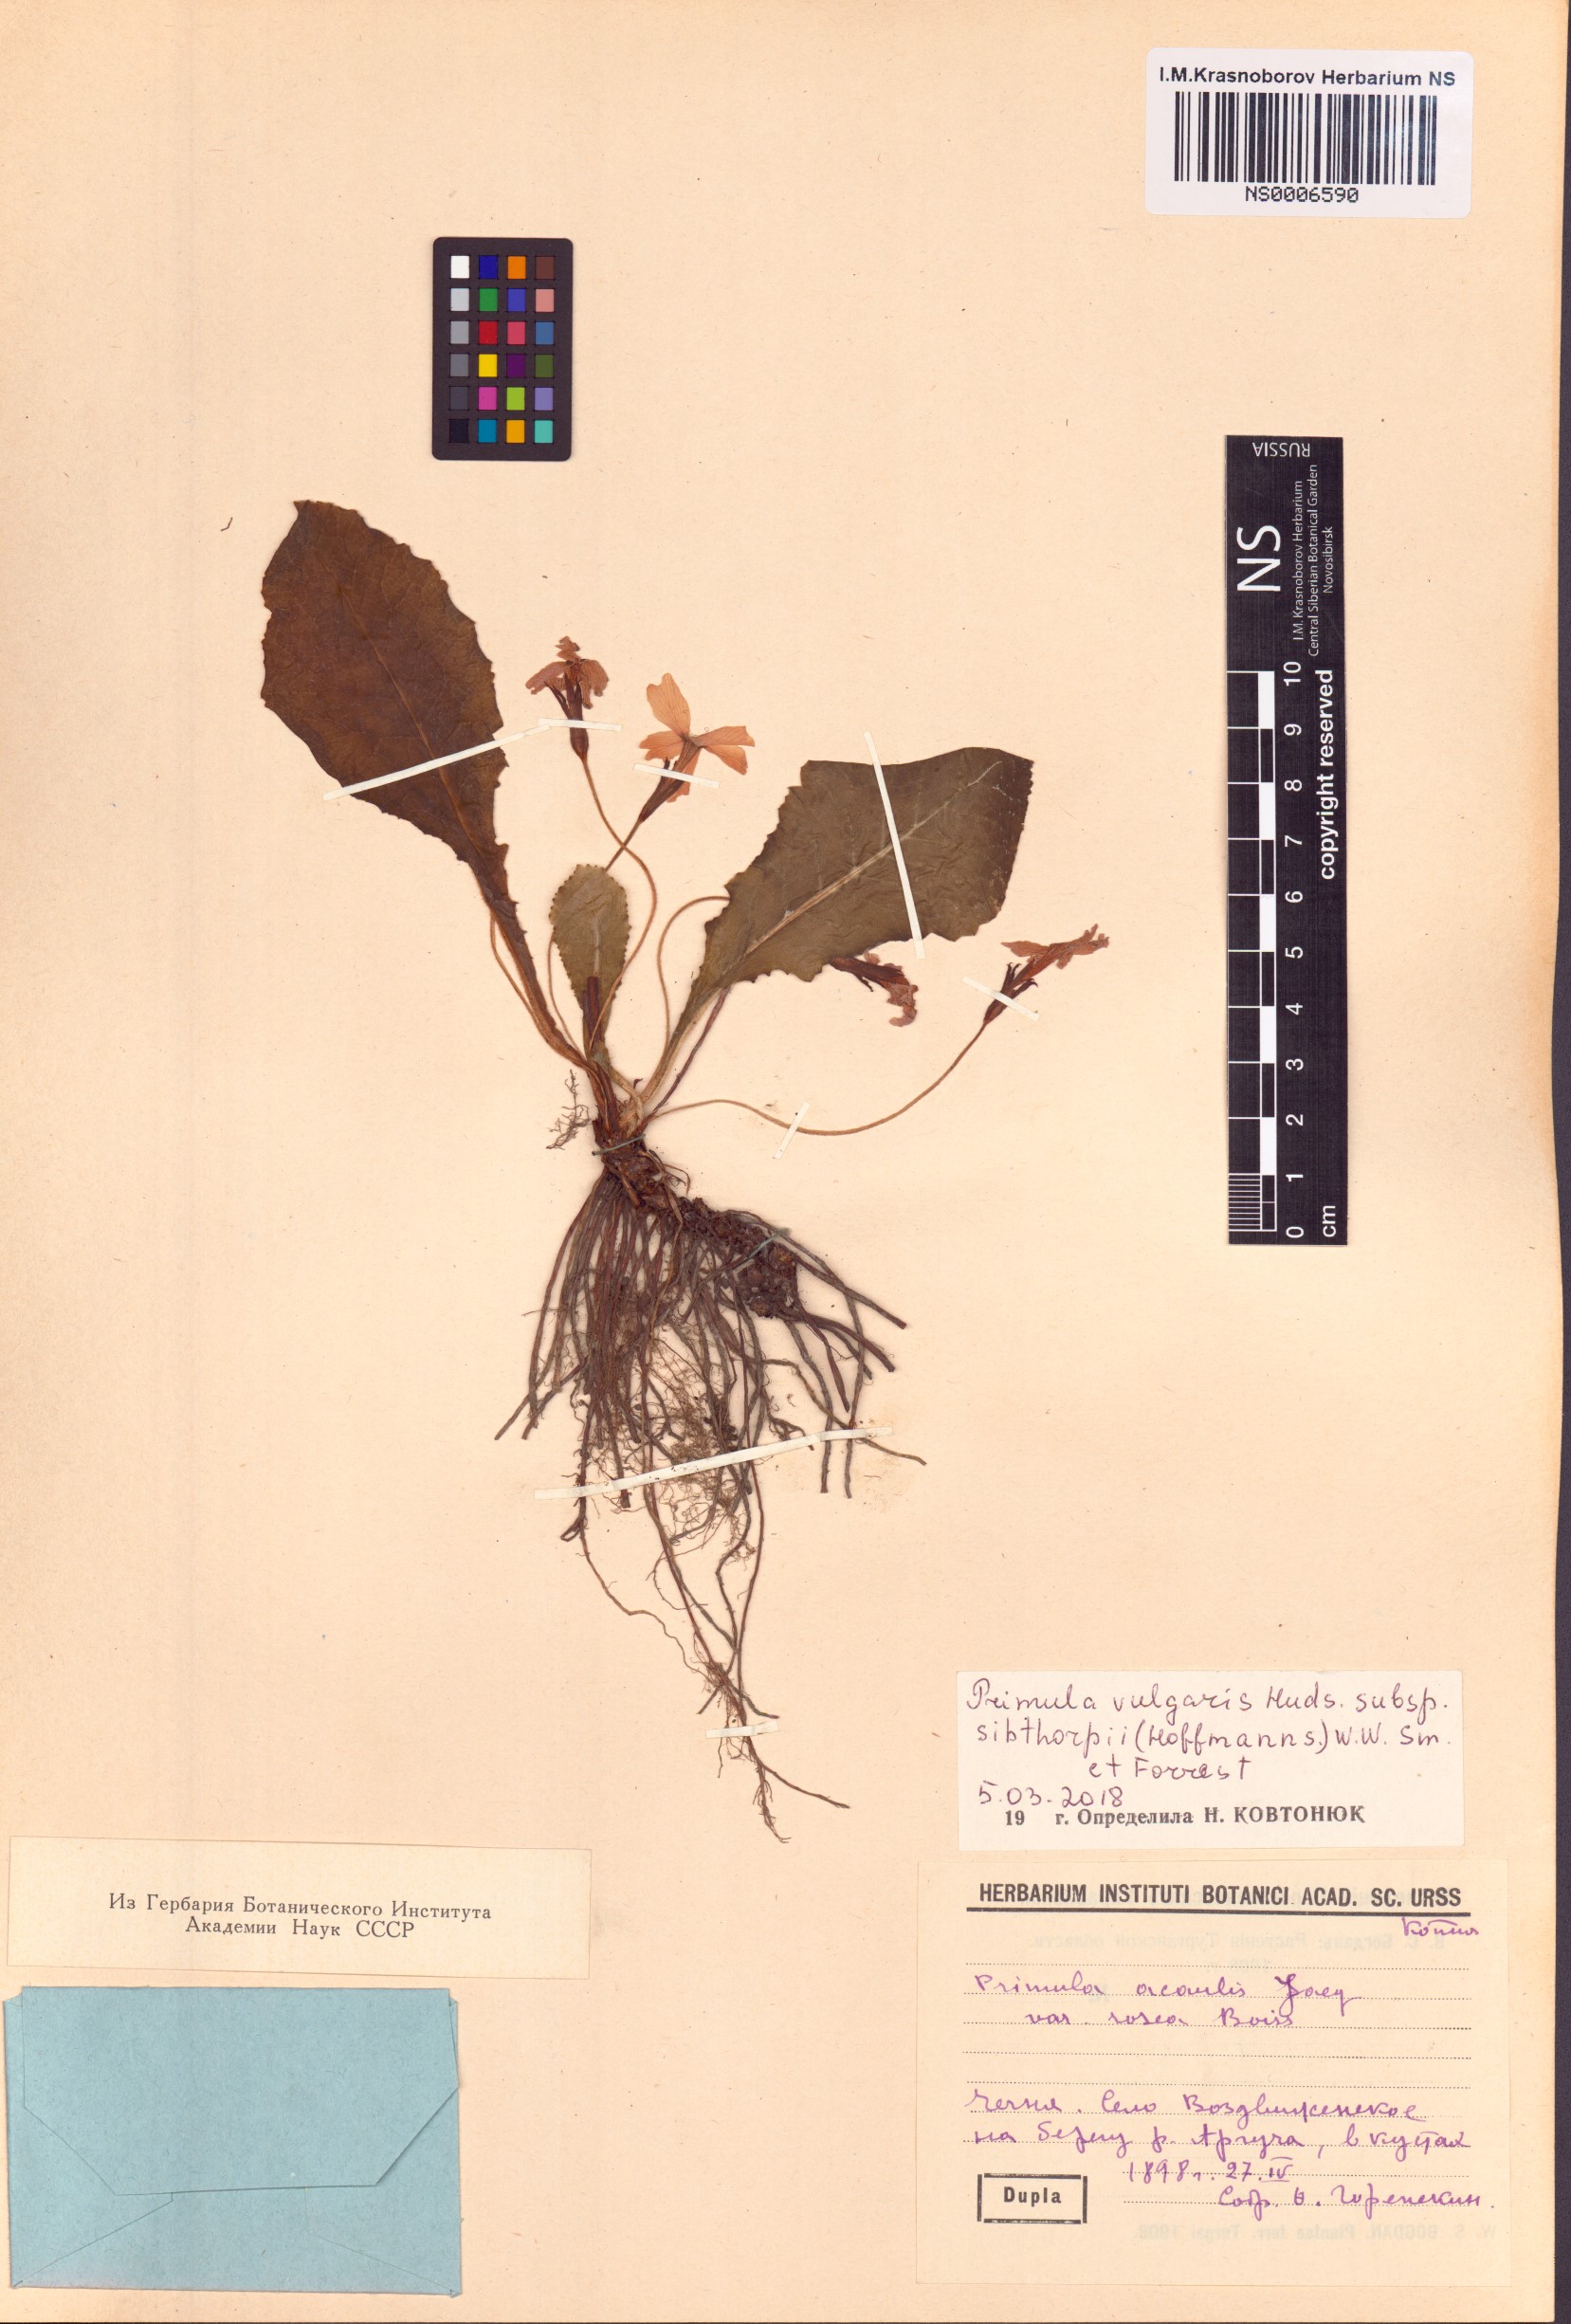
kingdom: Plantae
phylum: Tracheophyta
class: Magnoliopsida
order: Ericales
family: Primulaceae
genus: Primula
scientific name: Primula vulgaris
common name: Primrose
